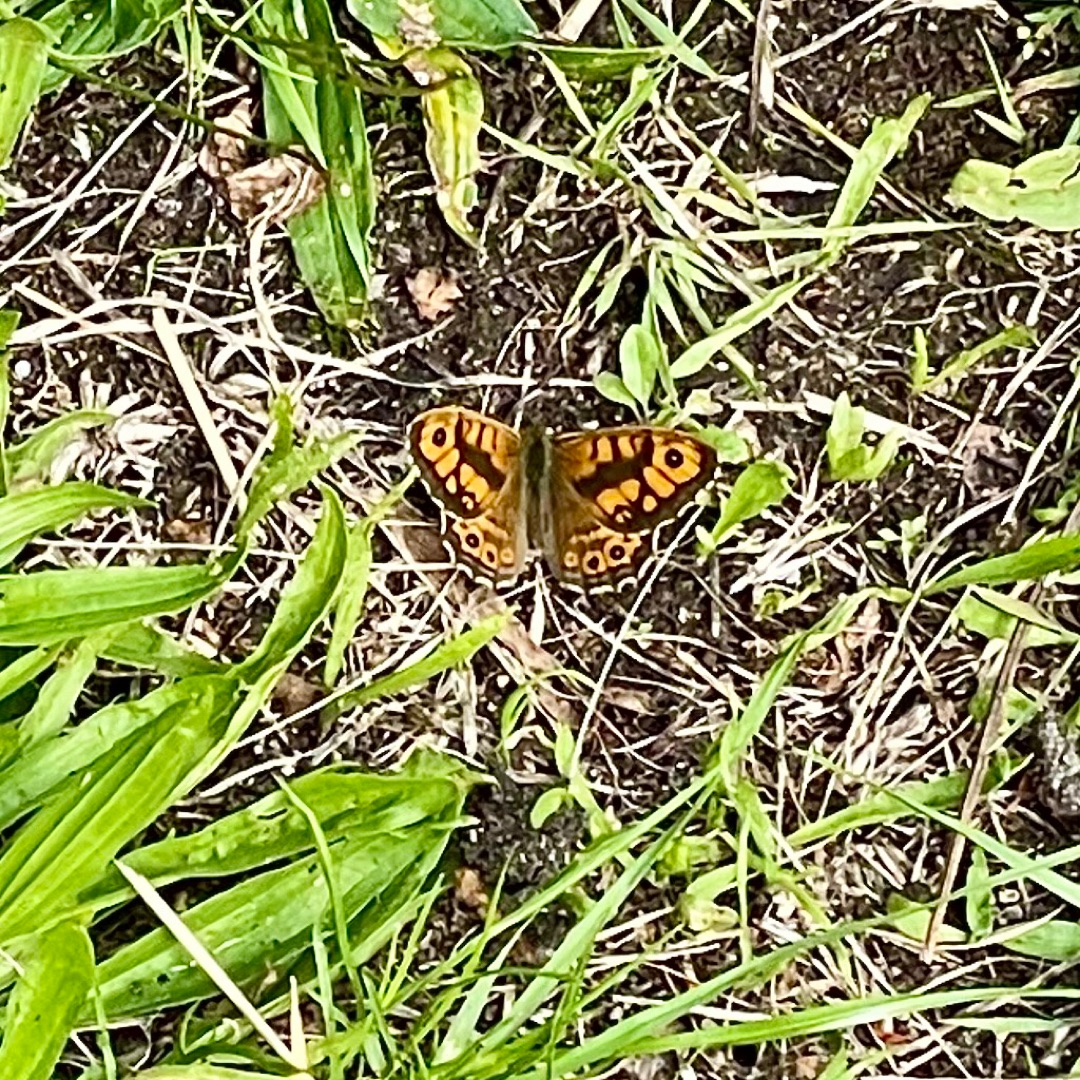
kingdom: Animalia
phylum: Arthropoda
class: Insecta
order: Lepidoptera
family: Nymphalidae
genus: Pararge
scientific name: Pararge Lasiommata megera
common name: Vejrandøje
